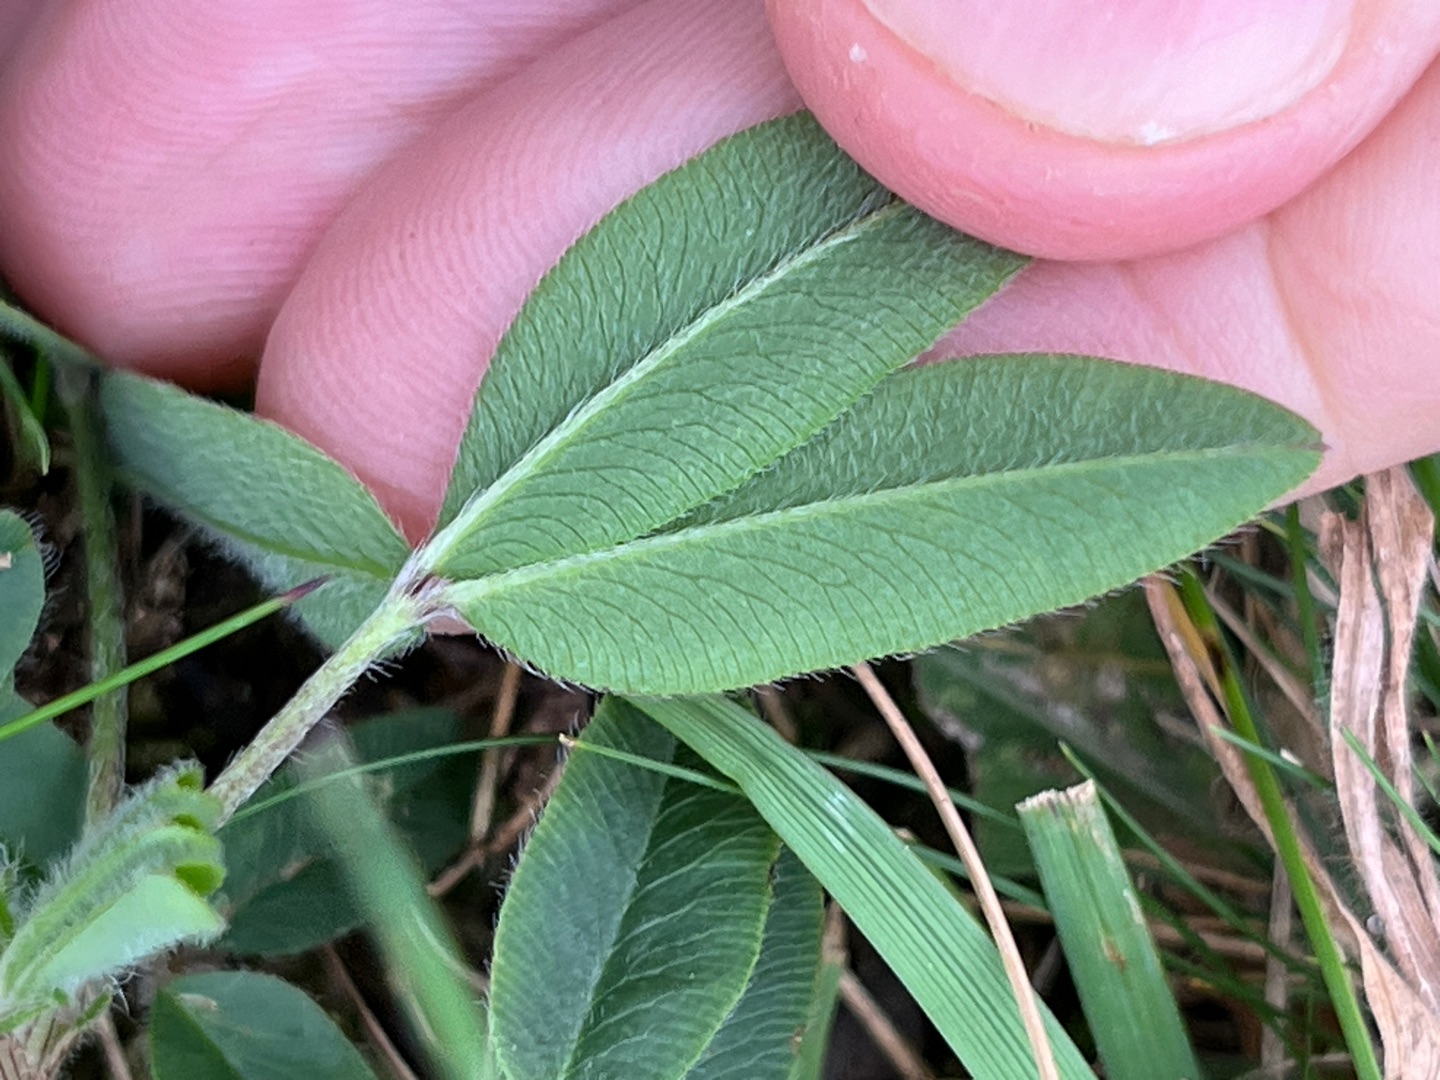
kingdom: Plantae
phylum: Tracheophyta
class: Magnoliopsida
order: Fabales
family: Fabaceae
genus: Trifolium
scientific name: Trifolium alpestre
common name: Skov-kløver
